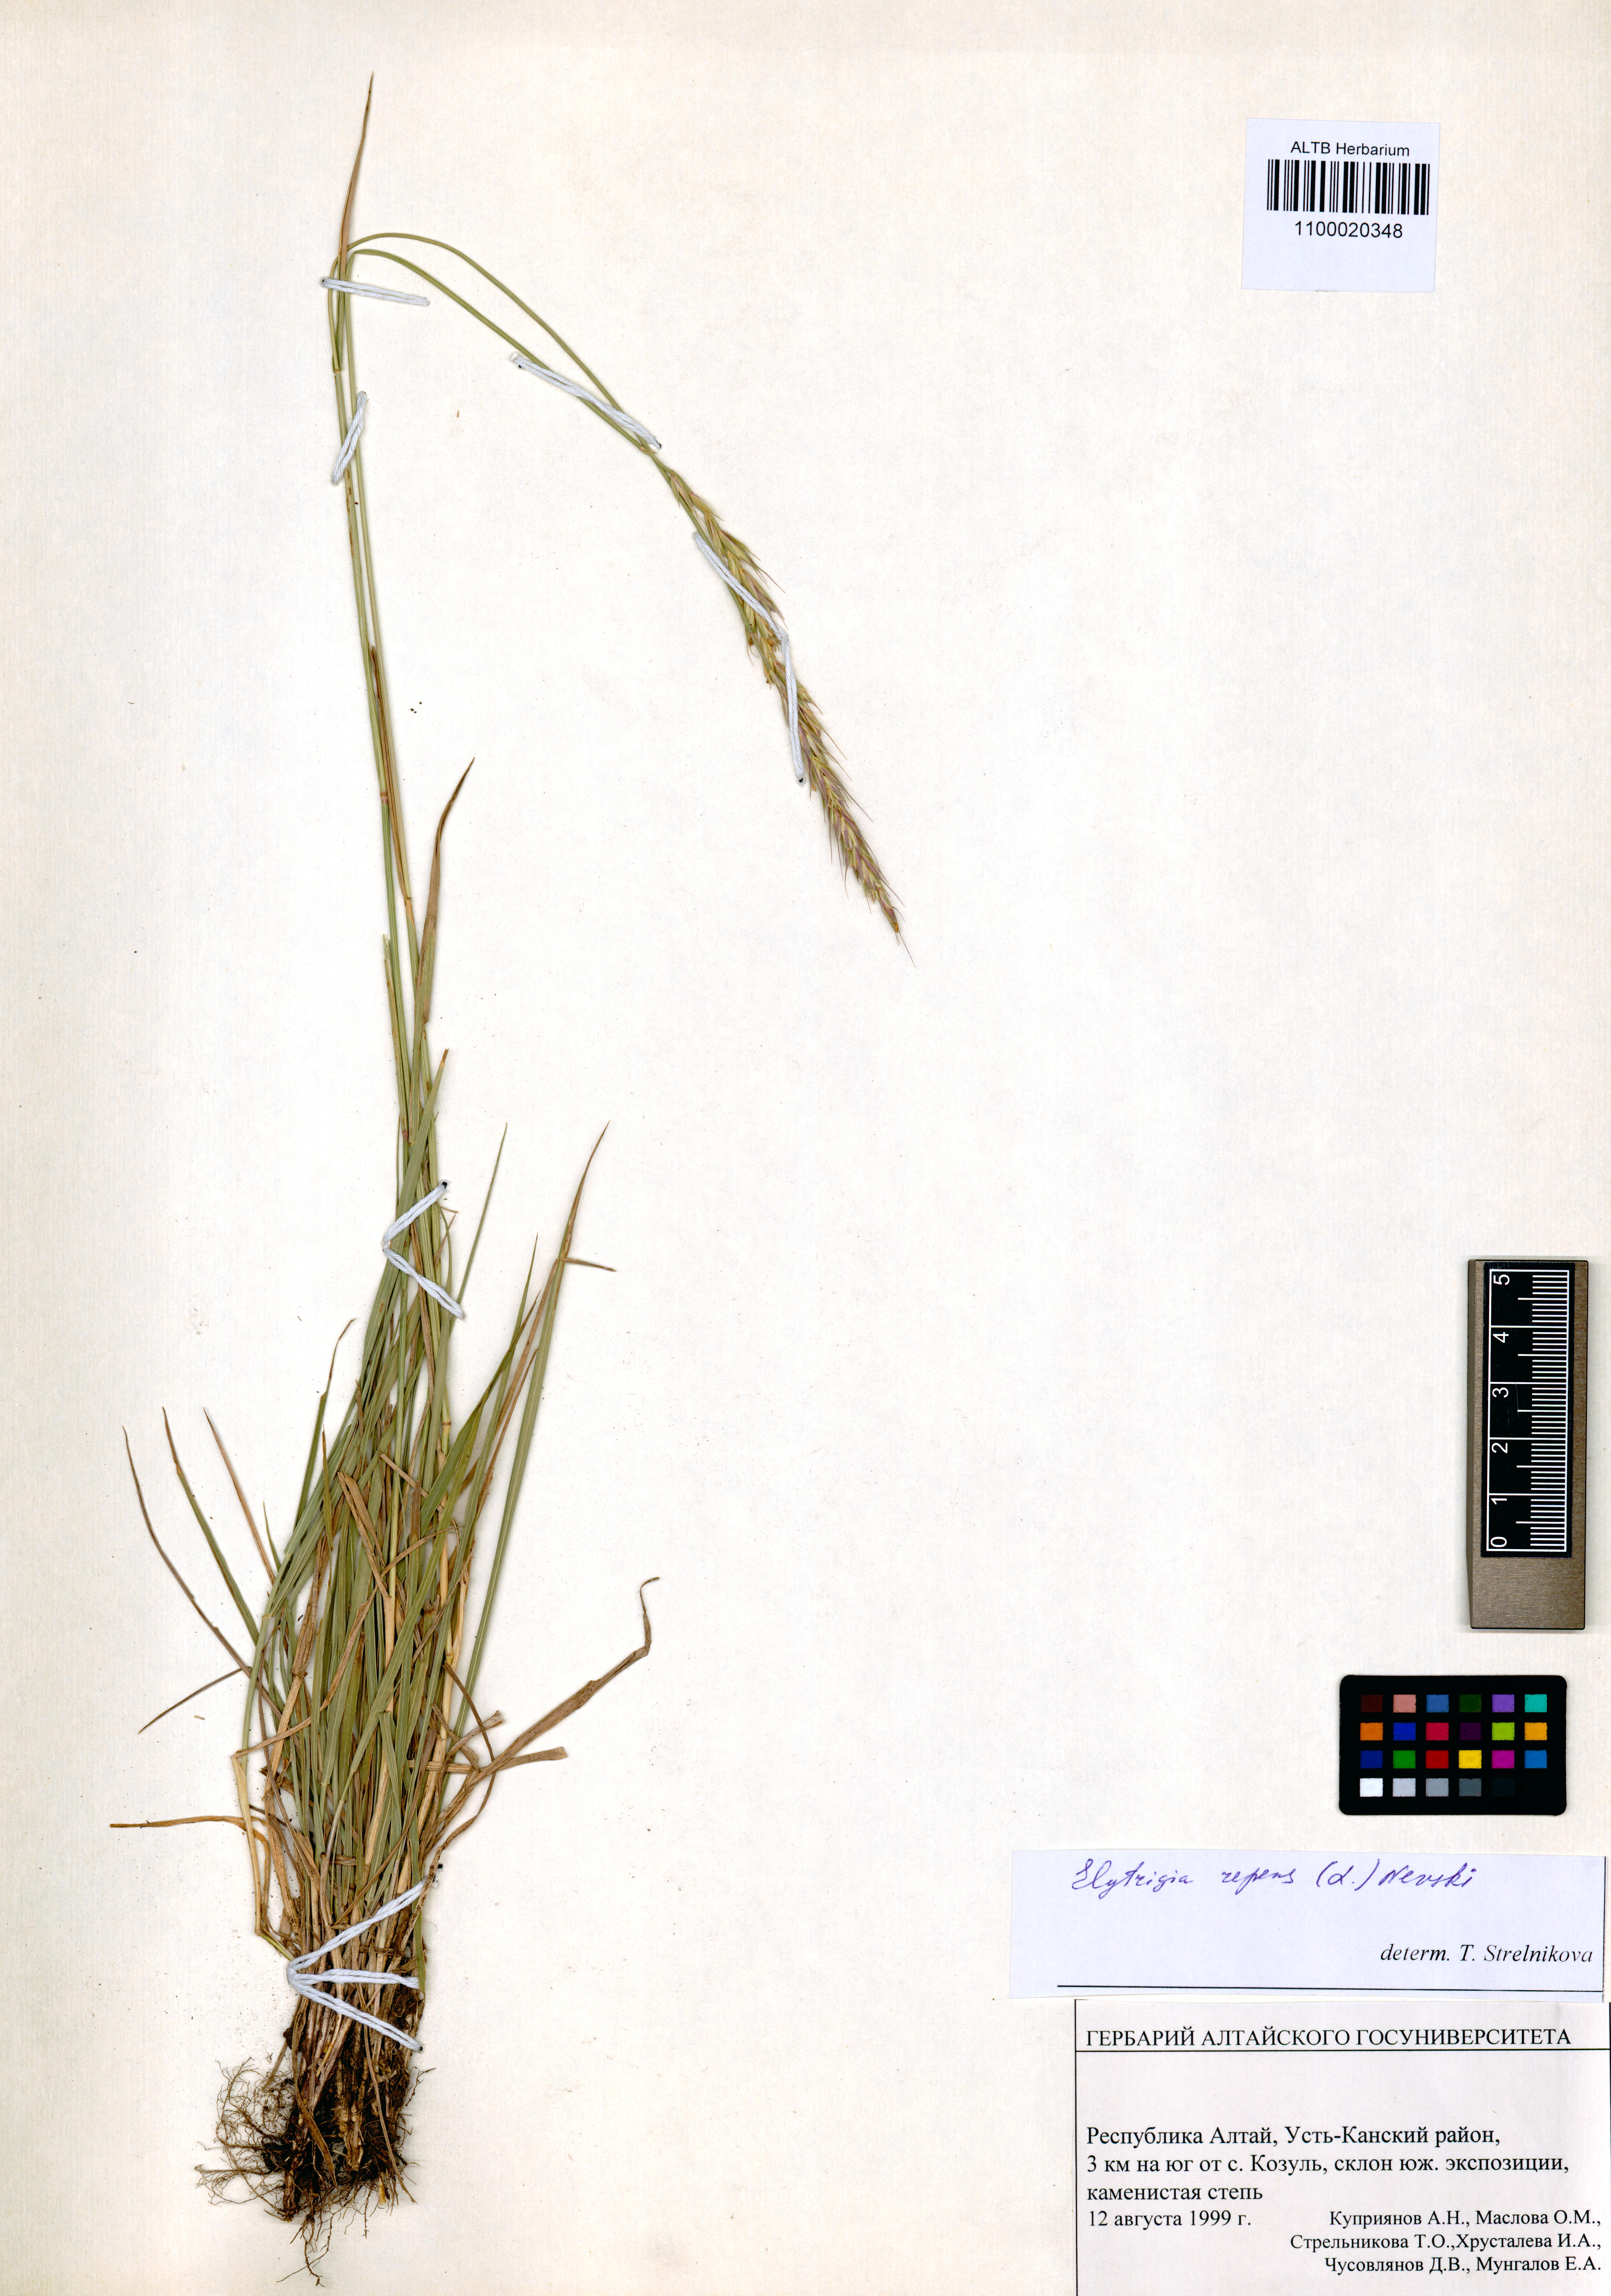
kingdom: Plantae
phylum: Tracheophyta
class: Liliopsida
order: Poales
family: Poaceae
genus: Elymus
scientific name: Elymus repens
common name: Quackgrass
